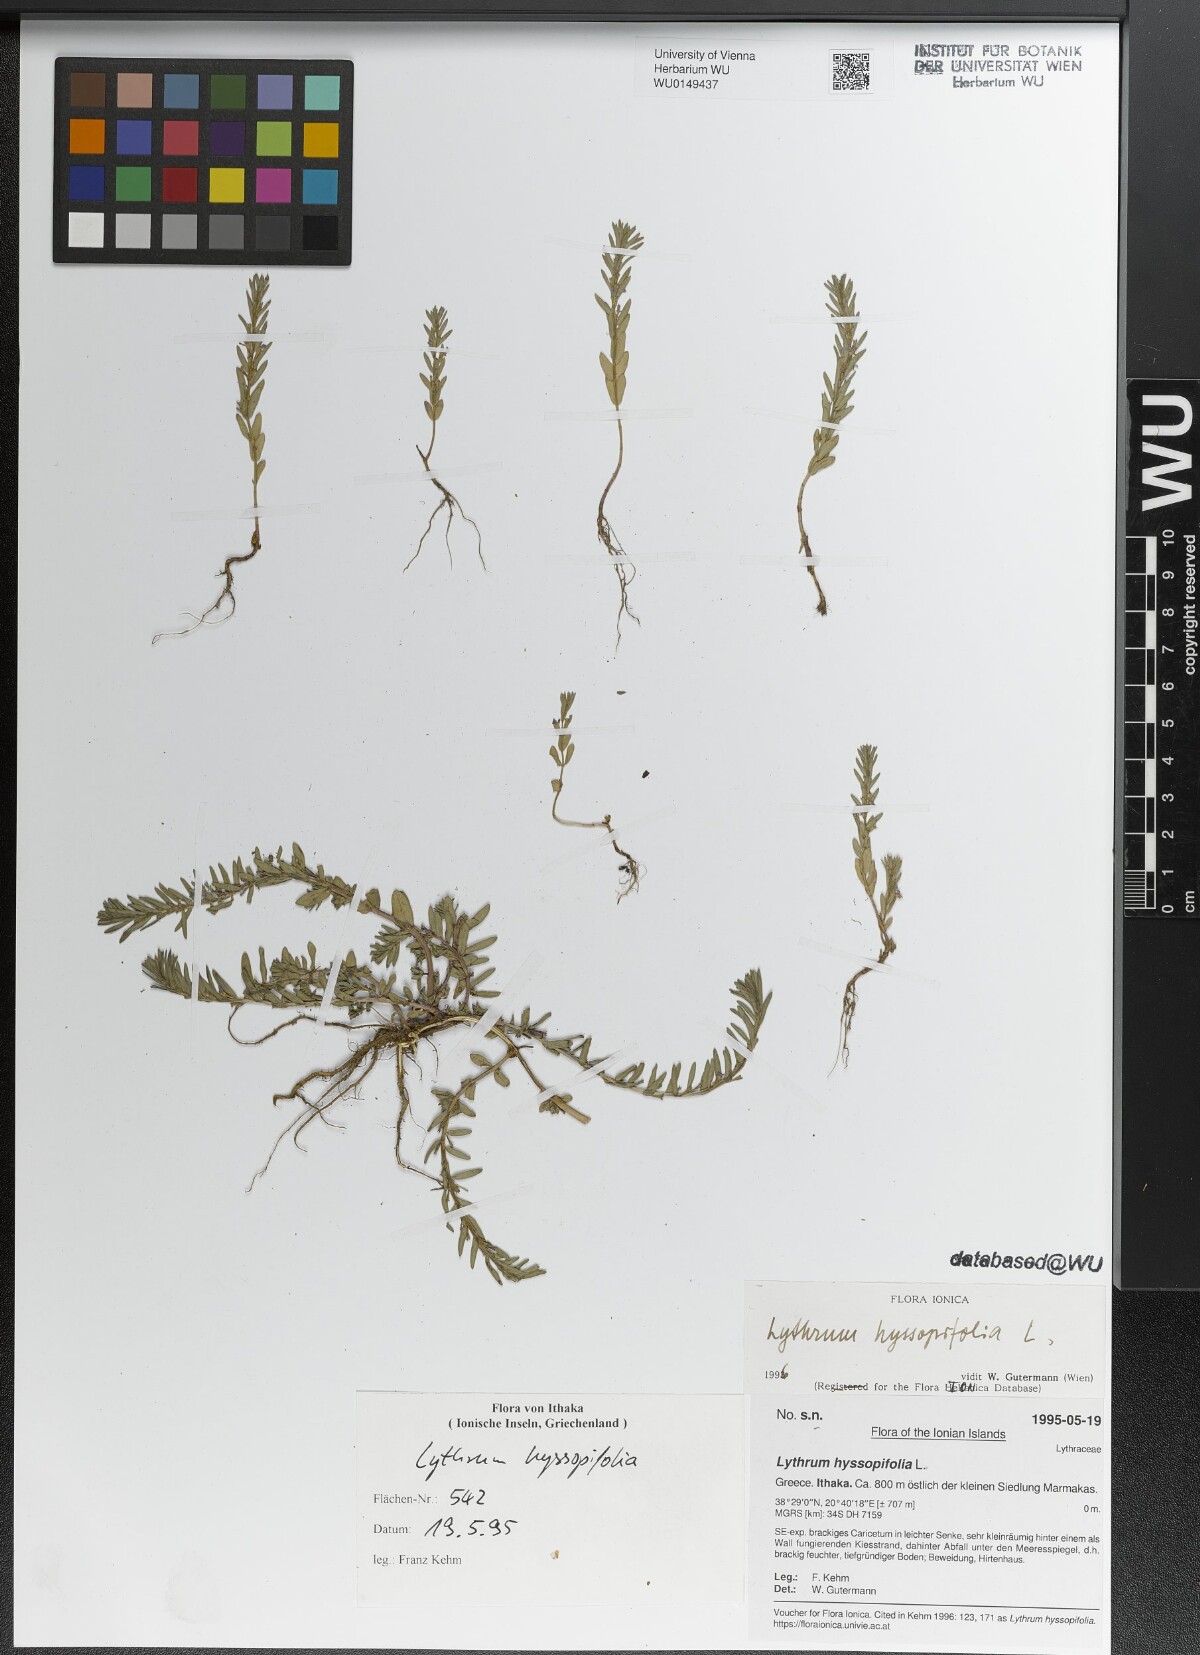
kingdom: Plantae
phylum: Tracheophyta
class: Magnoliopsida
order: Myrtales
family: Lythraceae
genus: Lythrum
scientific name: Lythrum hyssopifolia
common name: Grass-poly
